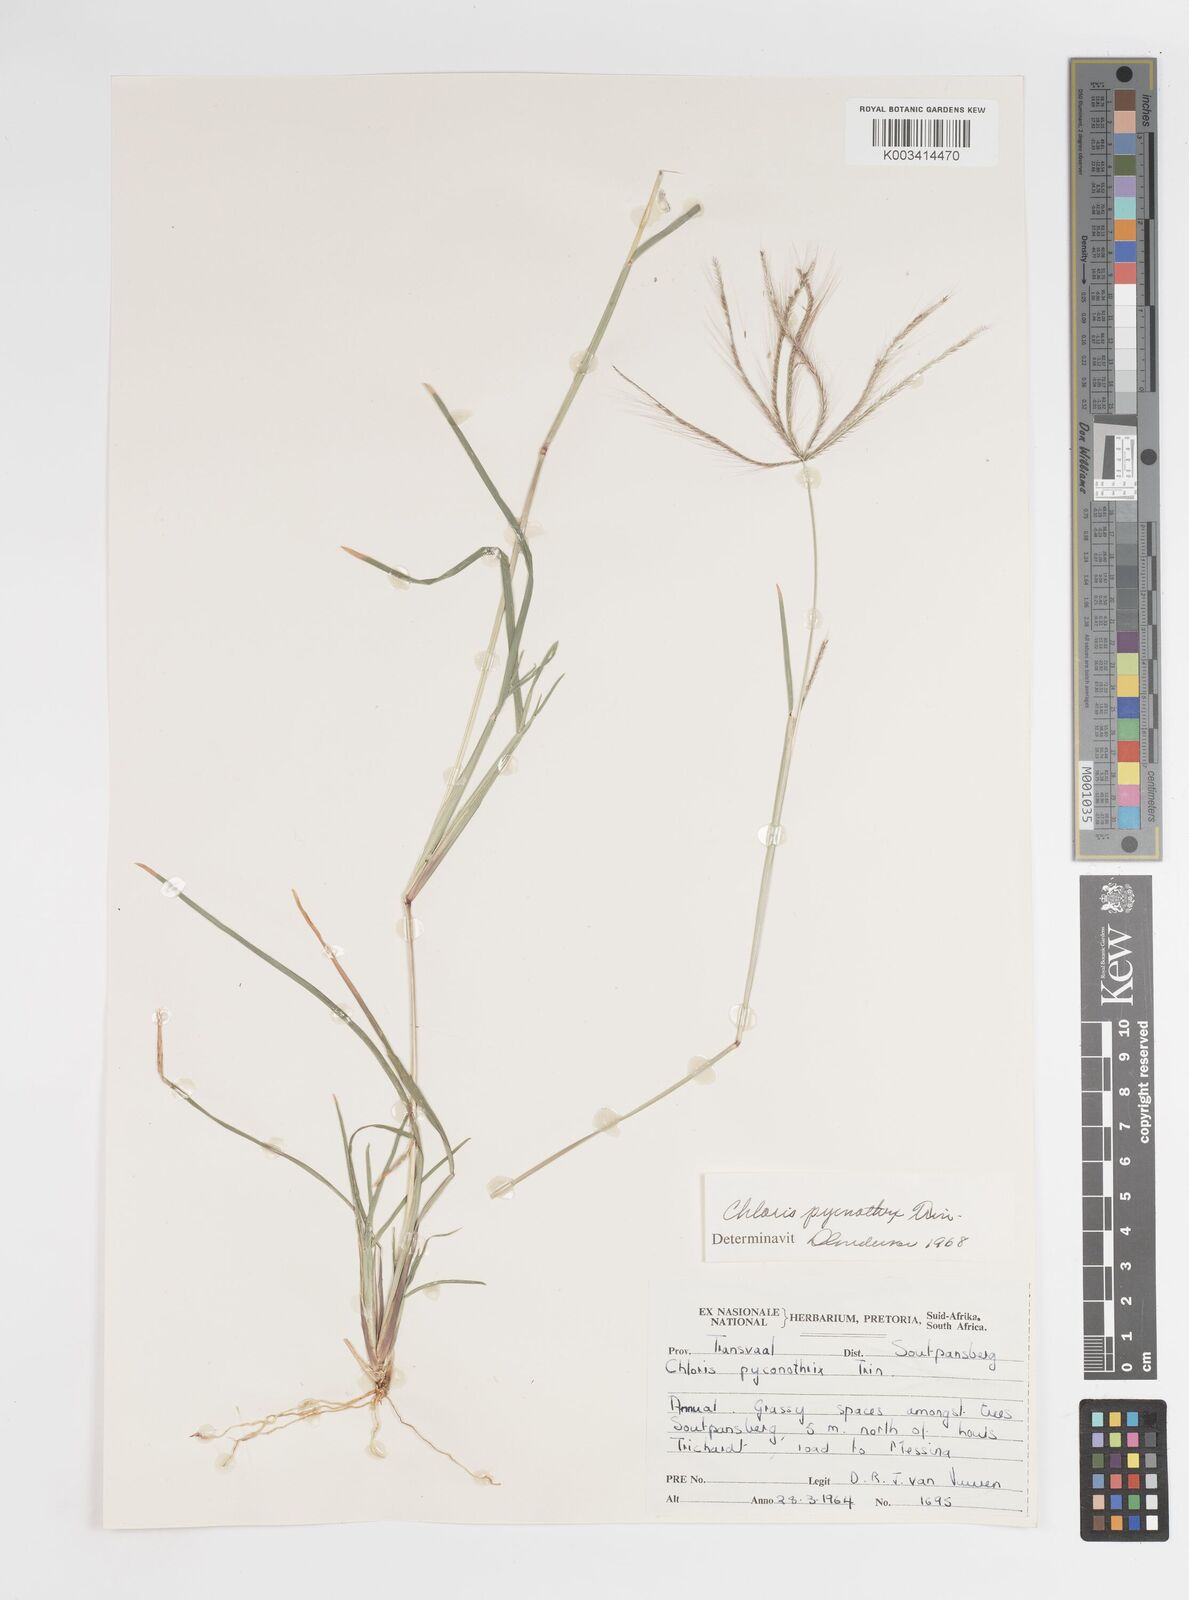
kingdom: Plantae
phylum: Tracheophyta
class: Liliopsida
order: Poales
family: Poaceae
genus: Chloris
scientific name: Chloris pycnothrix
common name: Spiderweb chloris
